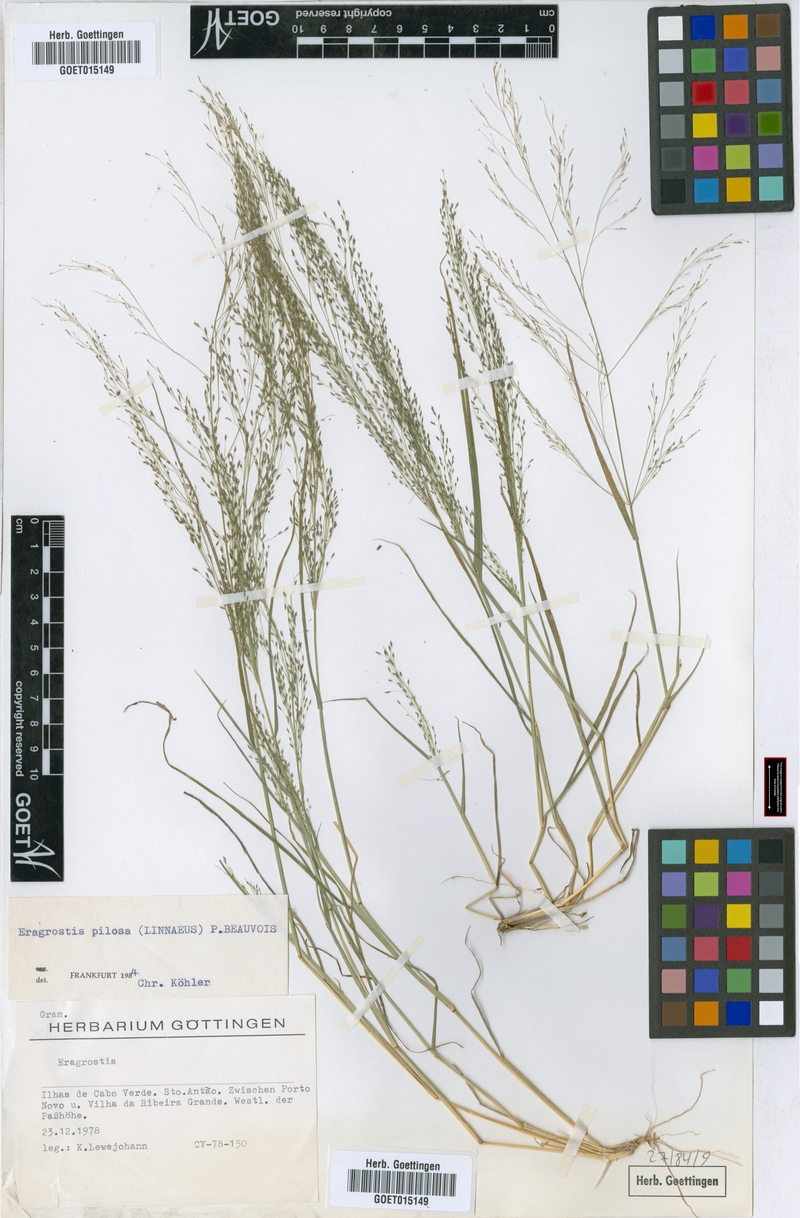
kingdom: Plantae
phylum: Tracheophyta
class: Liliopsida
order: Poales
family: Poaceae
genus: Eragrostis
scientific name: Eragrostis pilosa
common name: Indian lovegrass
